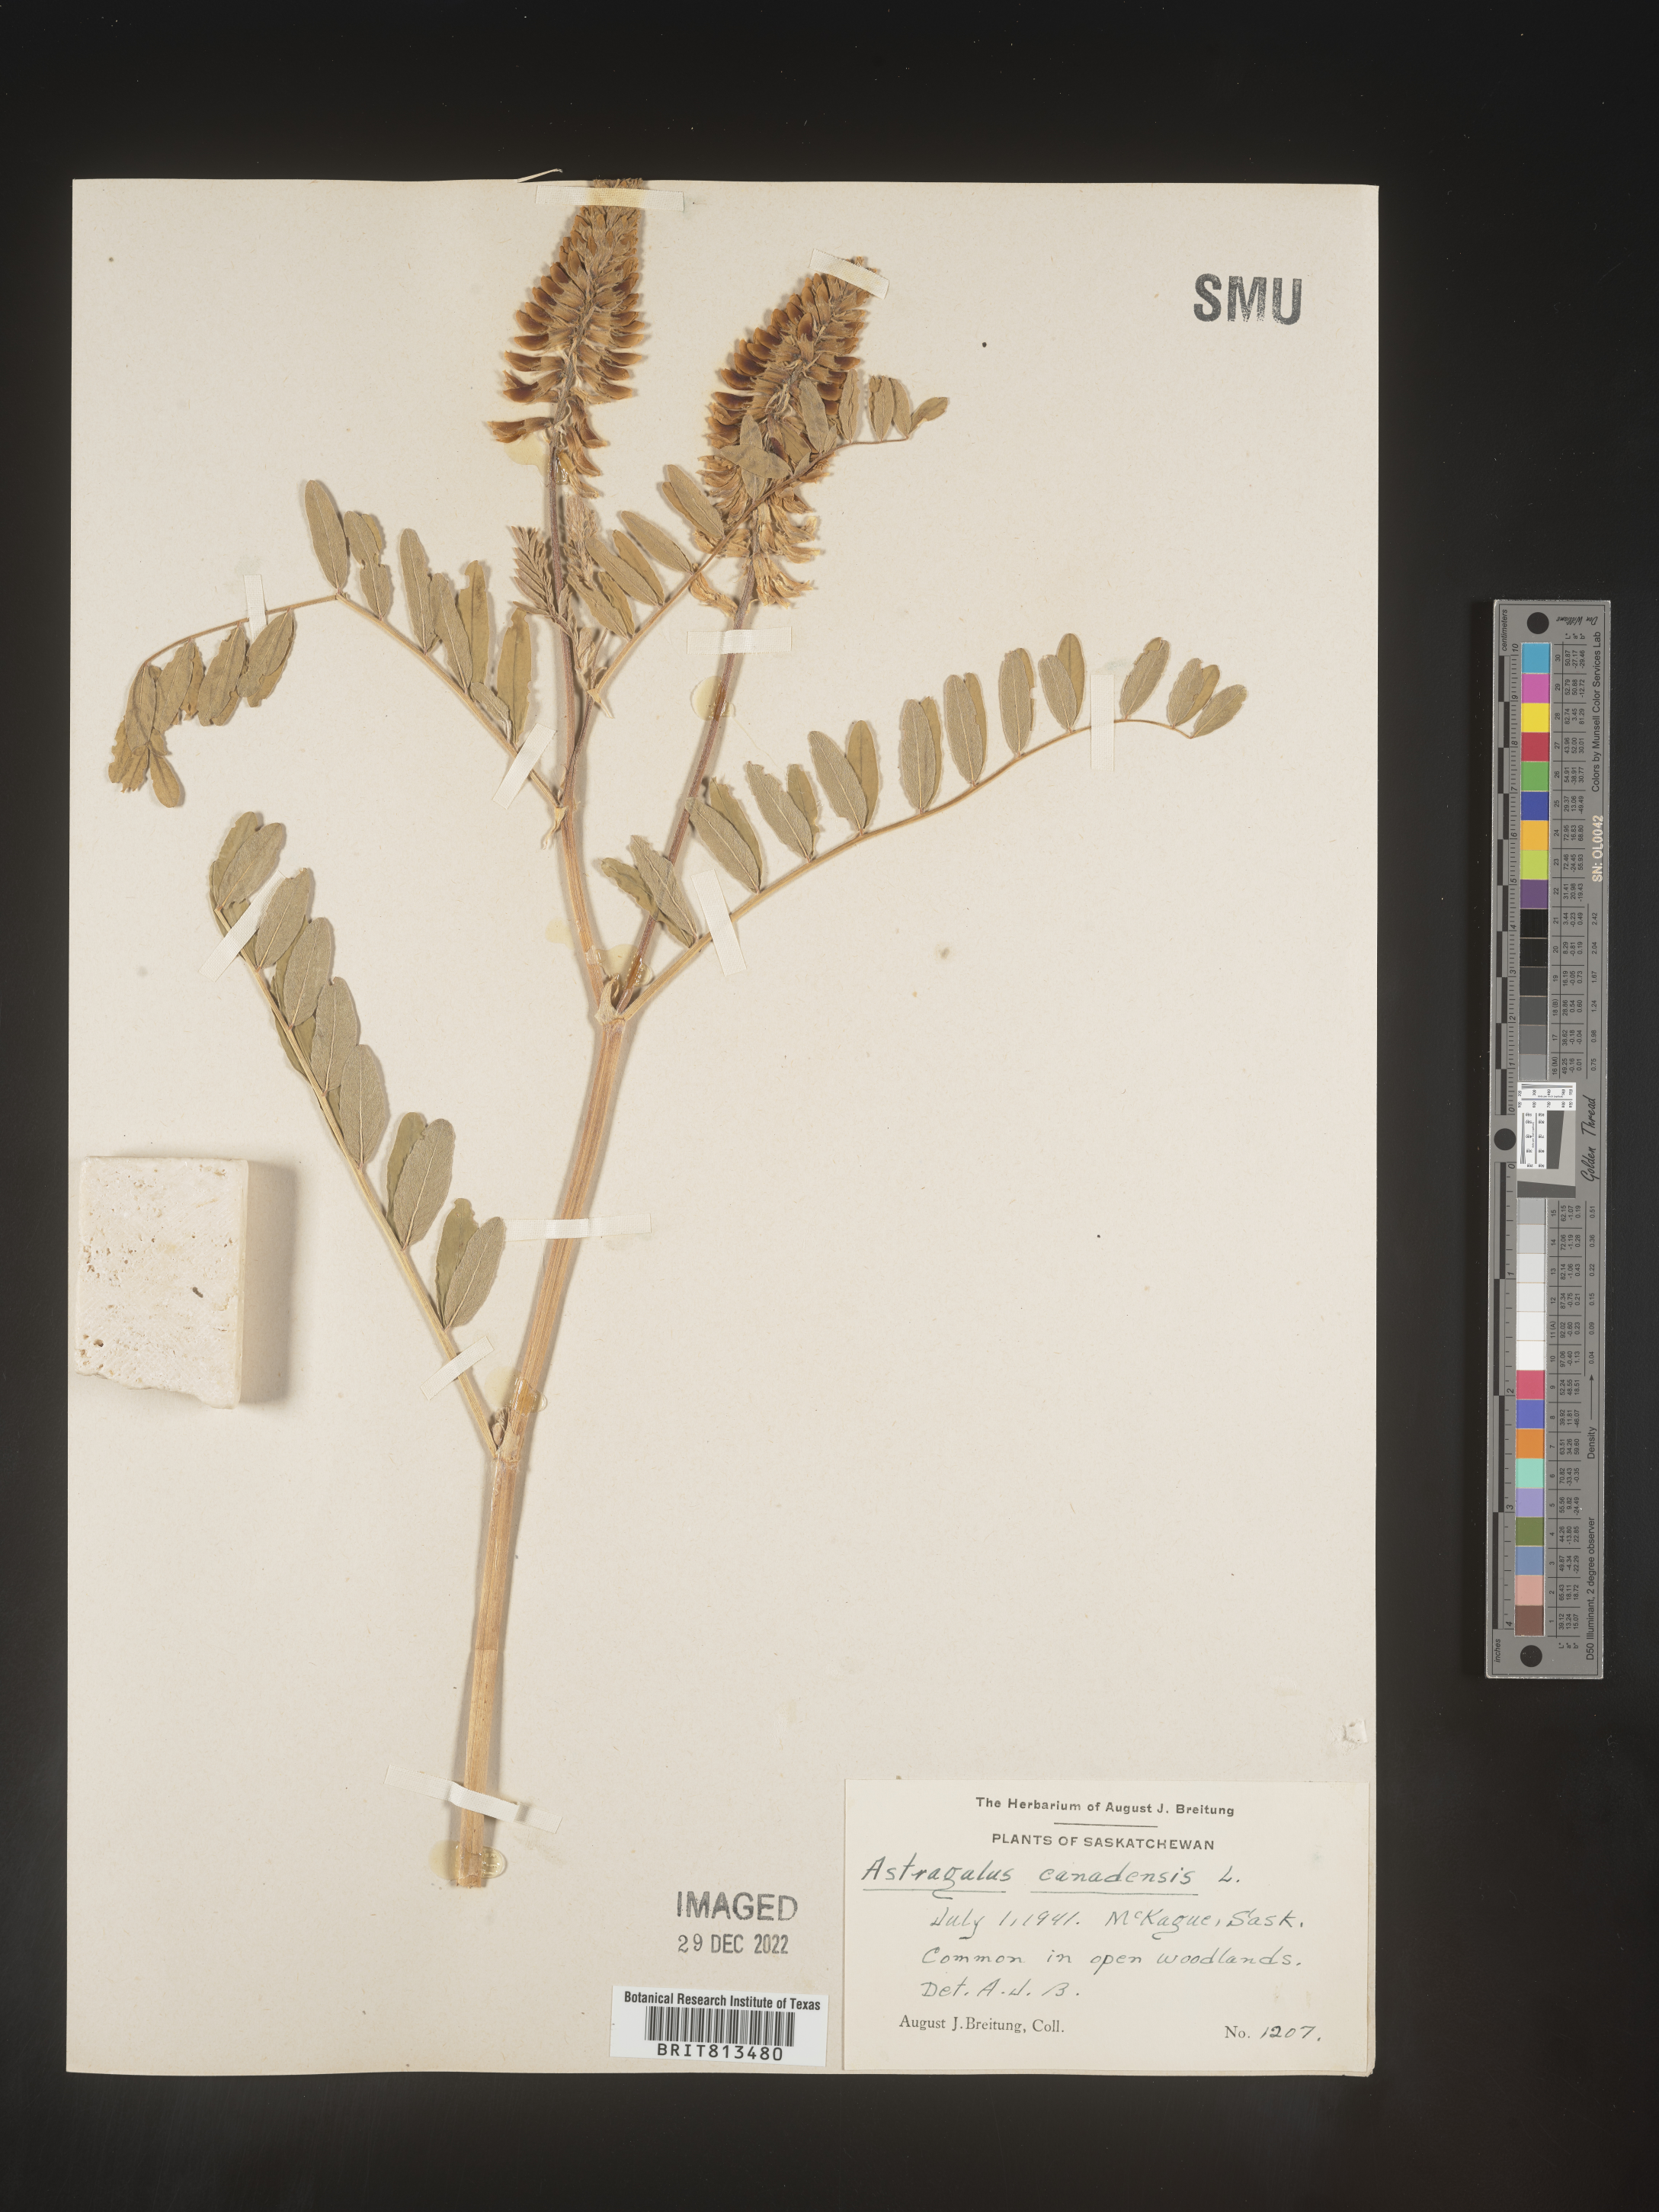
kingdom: Plantae
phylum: Tracheophyta
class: Magnoliopsida
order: Fabales
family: Fabaceae
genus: Astragalus
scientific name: Astragalus canadensis
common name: Canada milk-vetch
